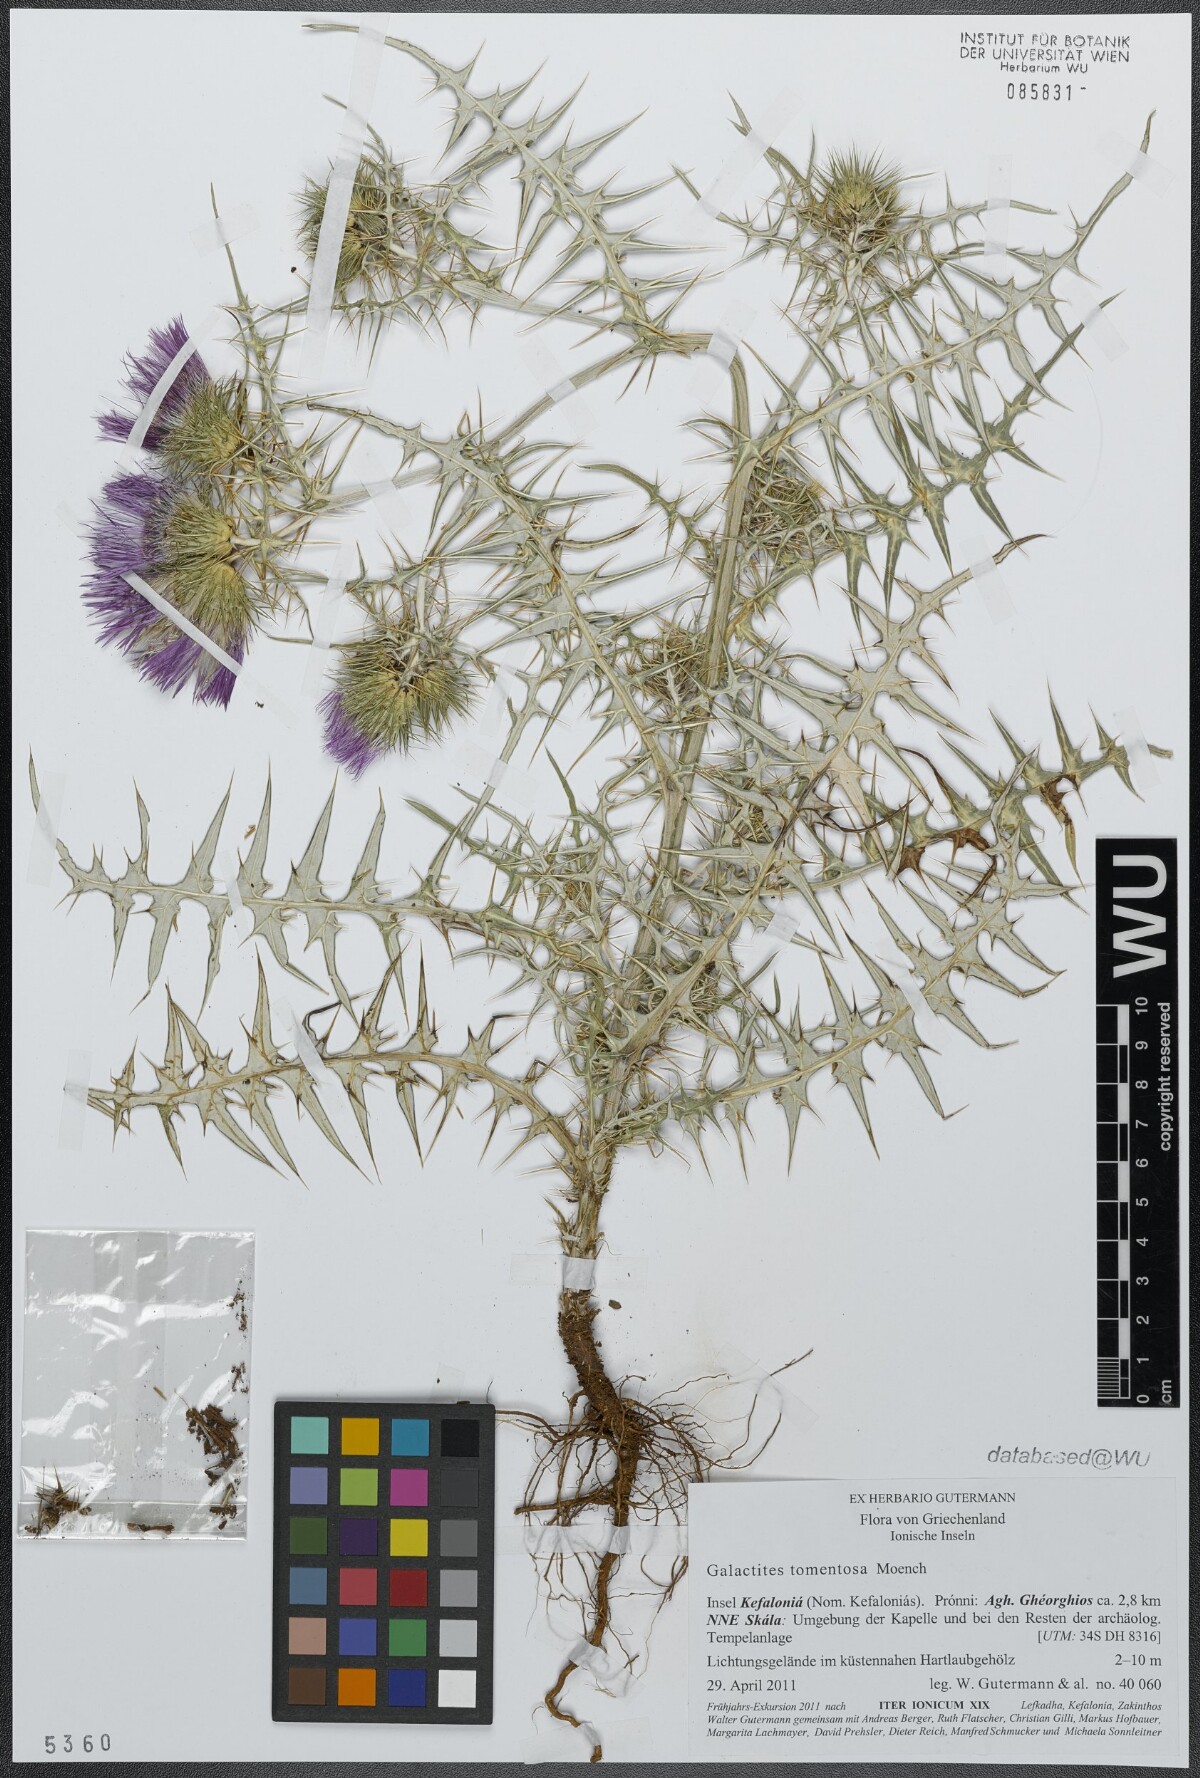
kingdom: Plantae
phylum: Tracheophyta
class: Magnoliopsida
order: Asterales
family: Asteraceae
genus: Galactites
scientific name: Galactites tomentosa
